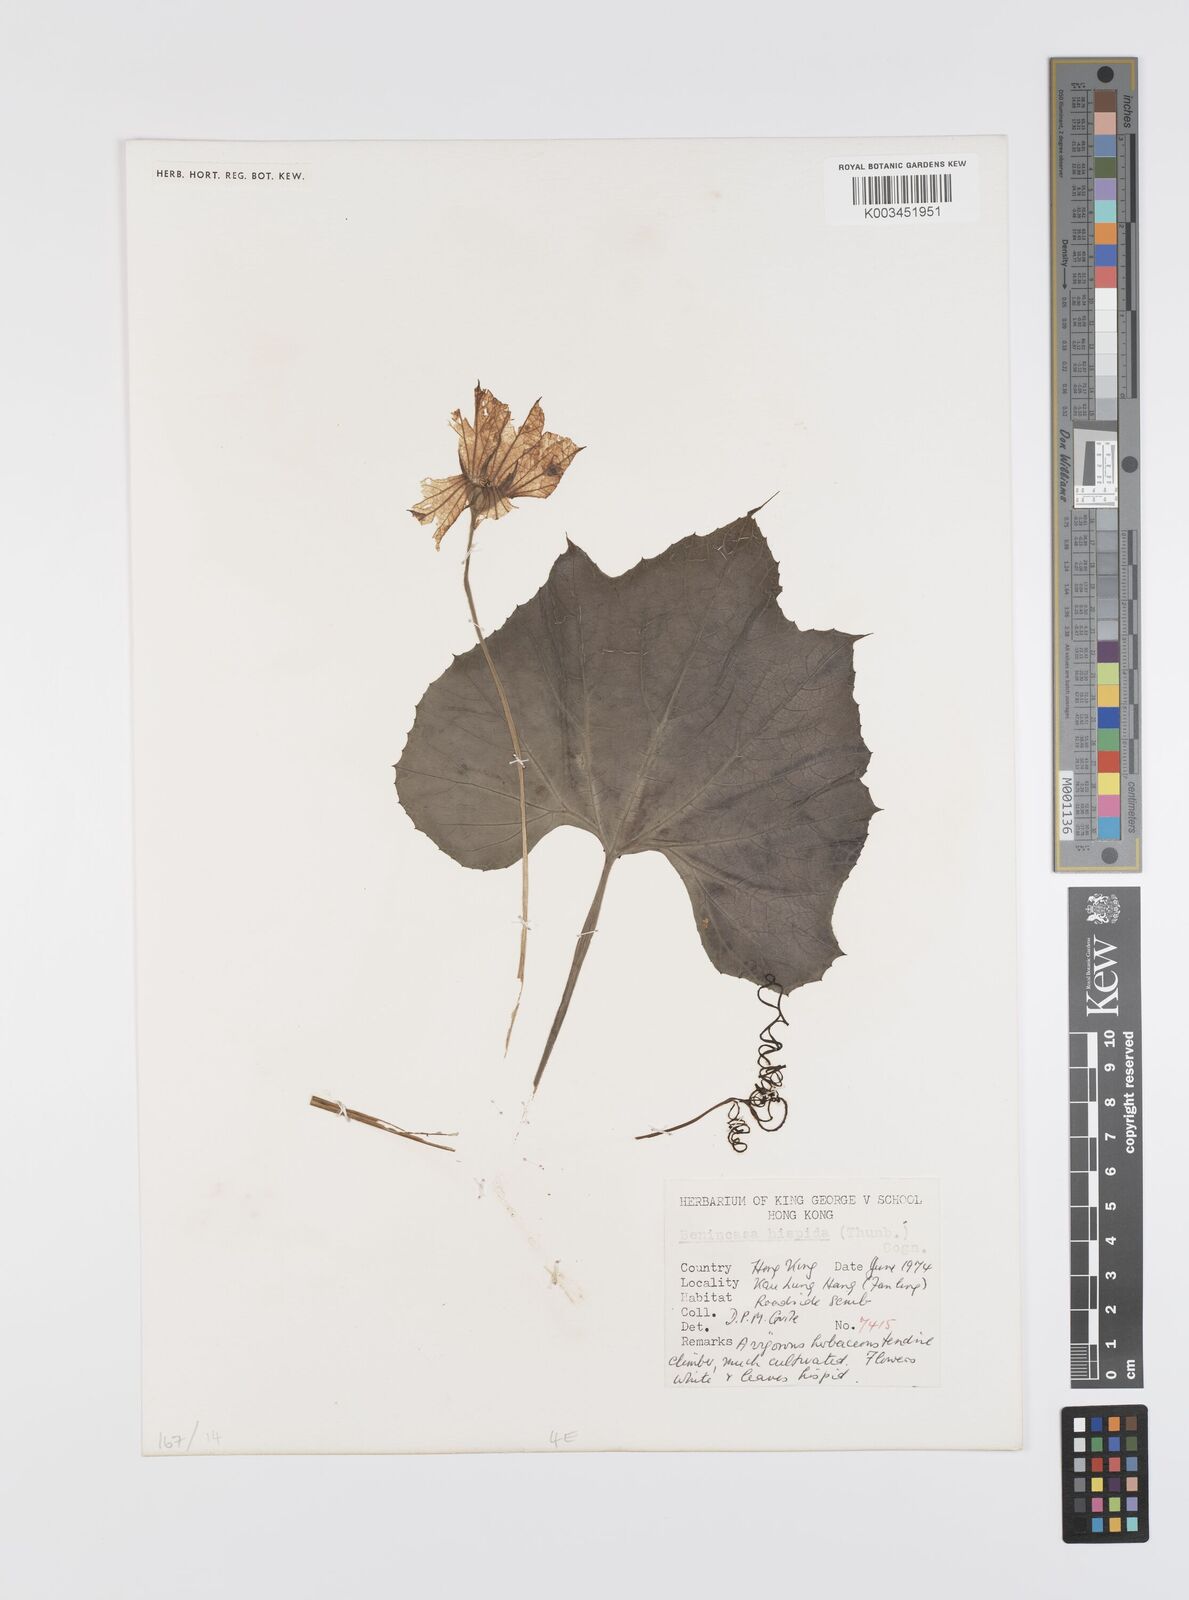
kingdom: Plantae
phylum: Tracheophyta
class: Magnoliopsida
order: Cucurbitales
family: Cucurbitaceae
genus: Benincasa
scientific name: Benincasa hispida
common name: Chinese-watermelon
